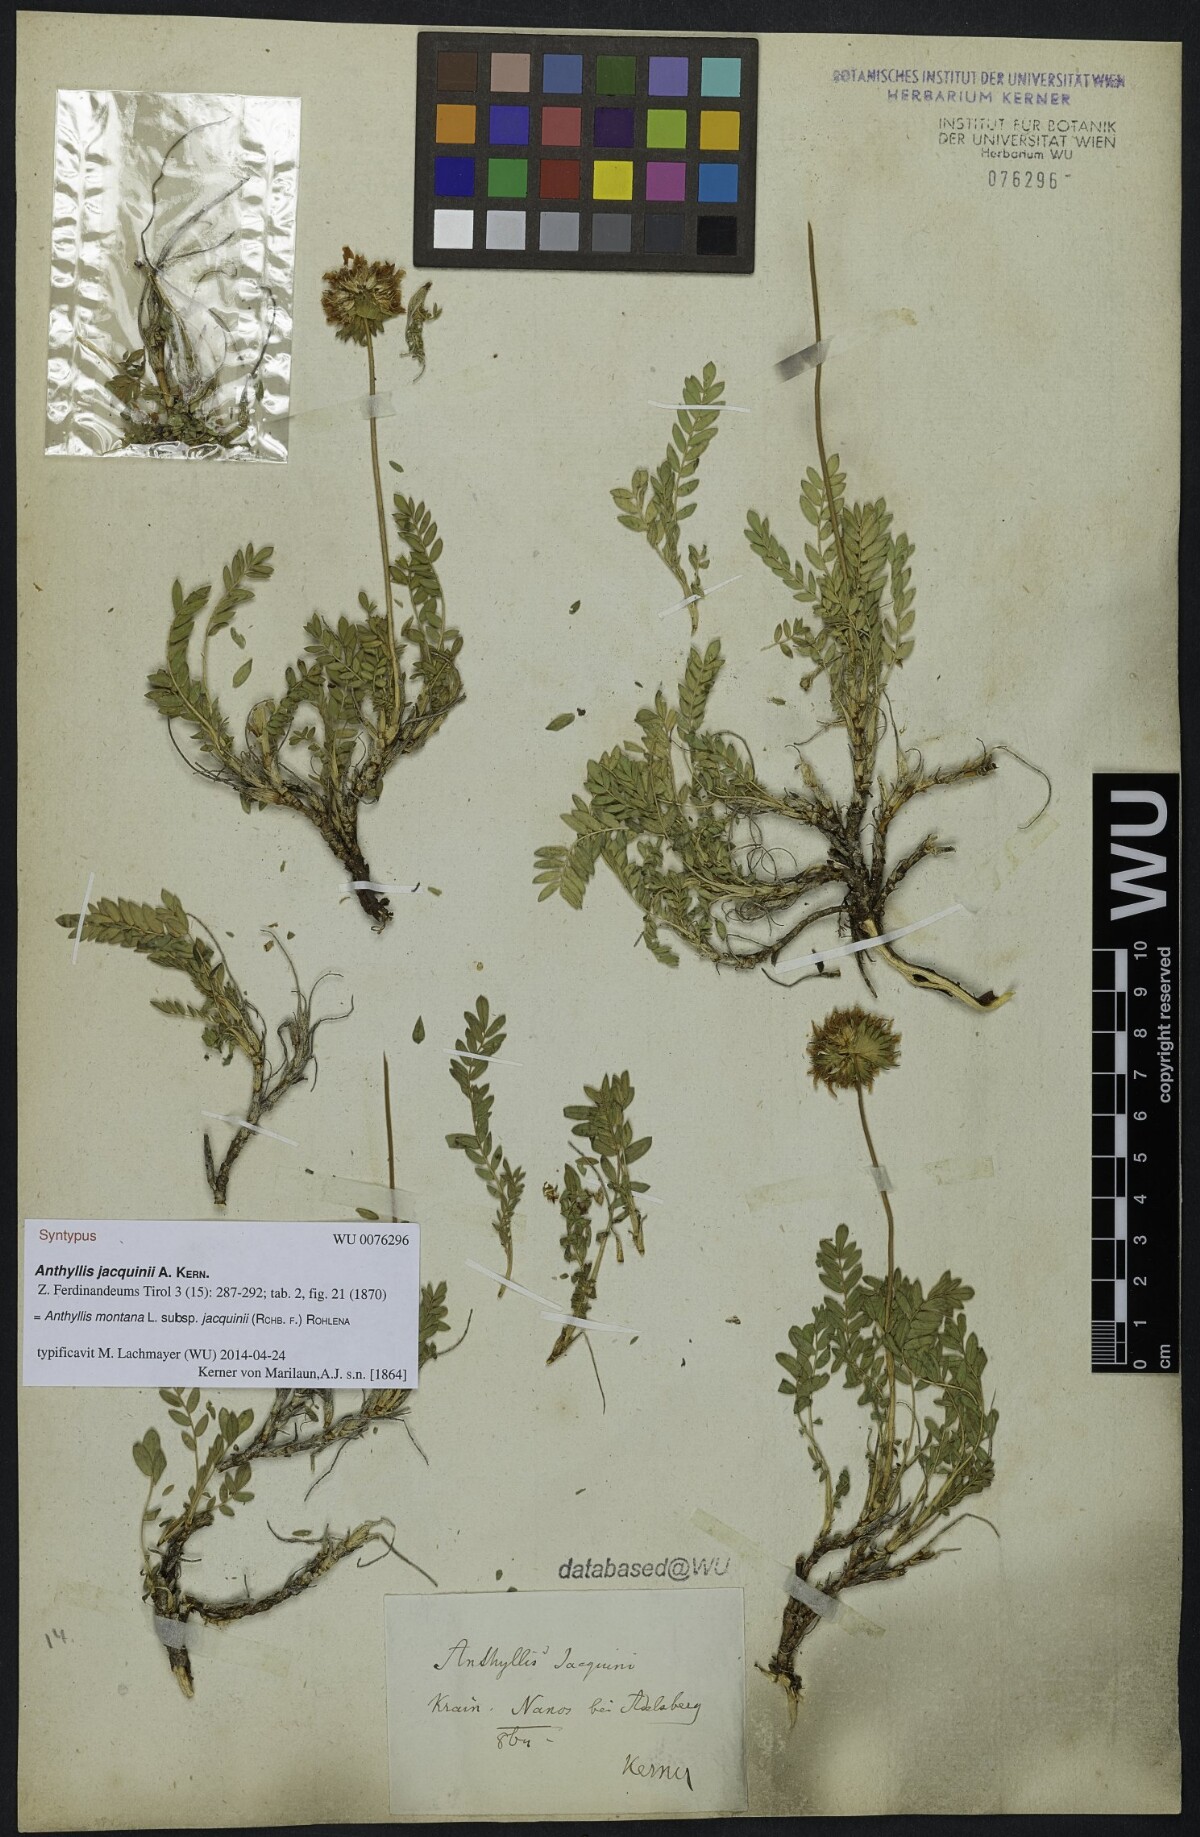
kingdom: Plantae
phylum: Tracheophyta
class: Magnoliopsida
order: Fabales
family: Fabaceae
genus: Anthyllis
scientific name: Anthyllis montana
